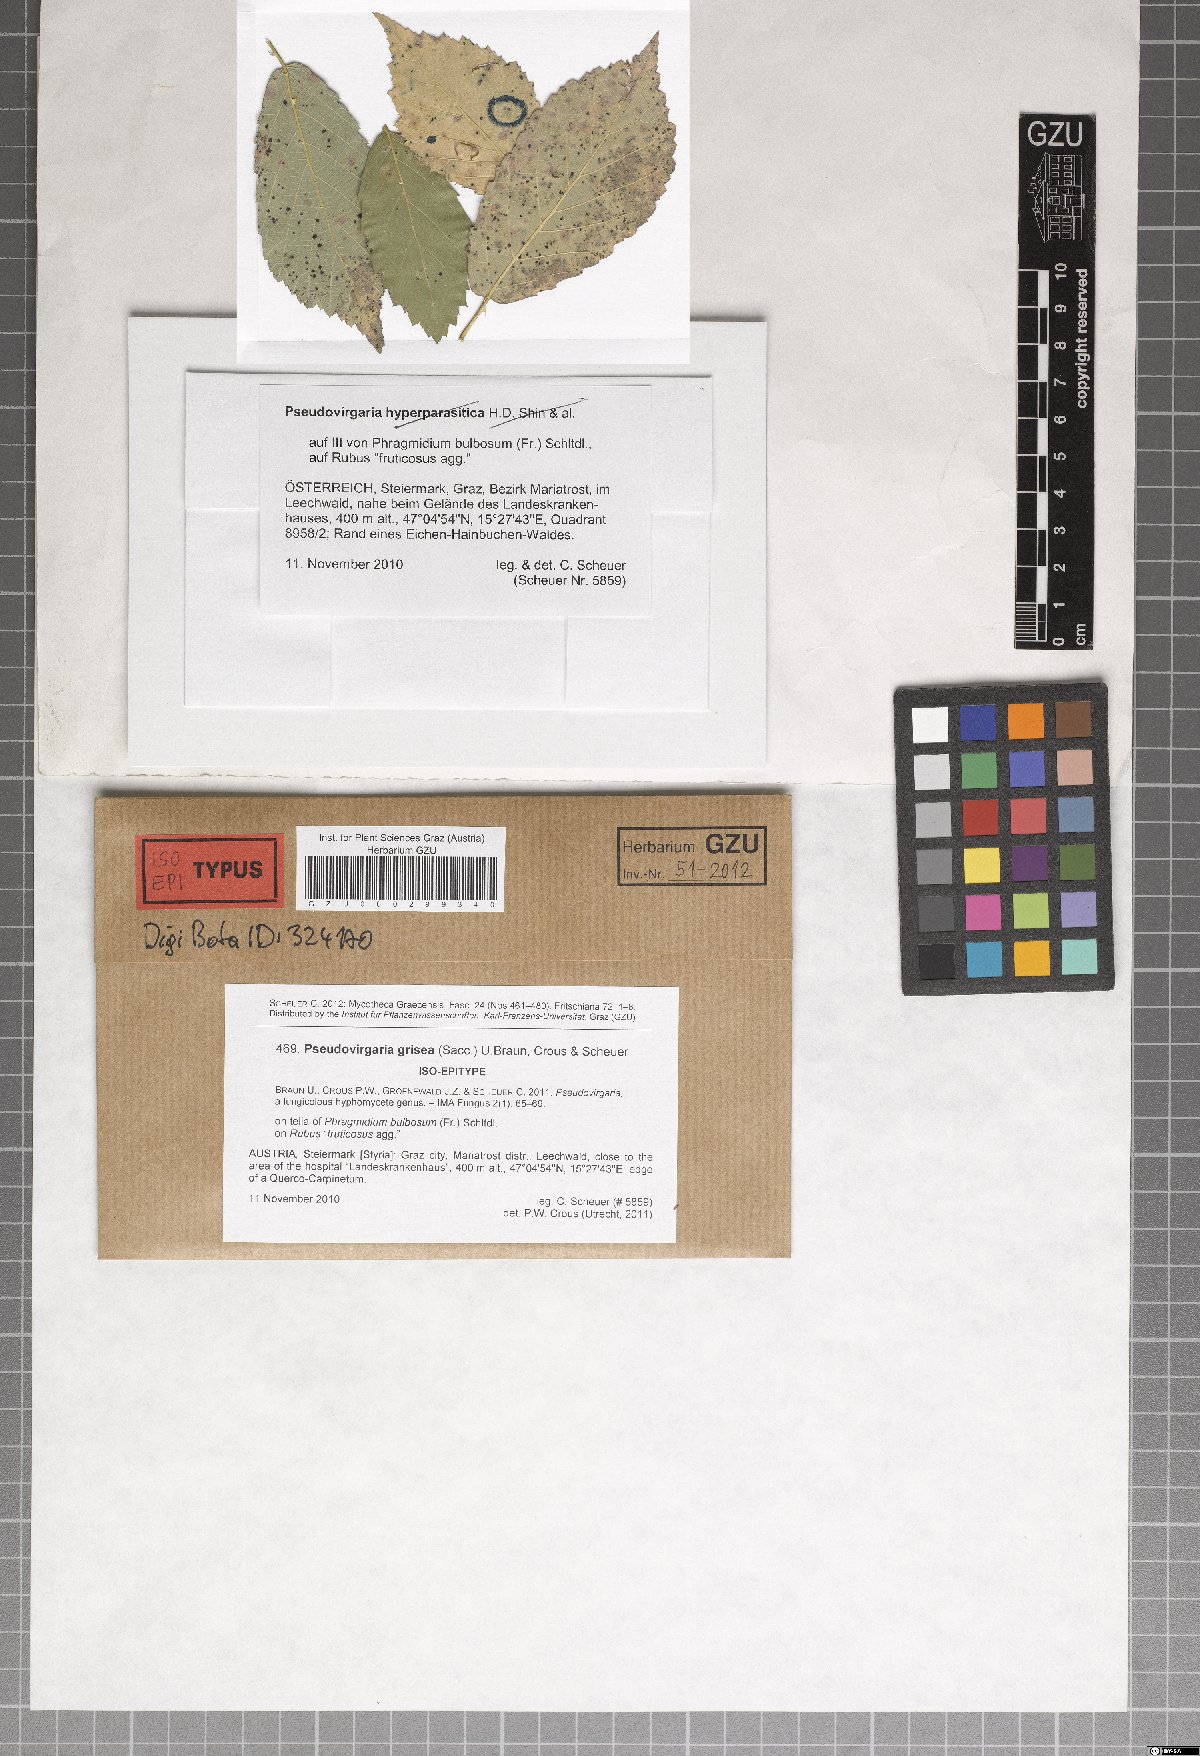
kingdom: Fungi
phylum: Ascomycota
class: Dothideomycetes
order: Capnodiales
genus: Pseudovirgaria
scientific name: Pseudovirgaria grisea
